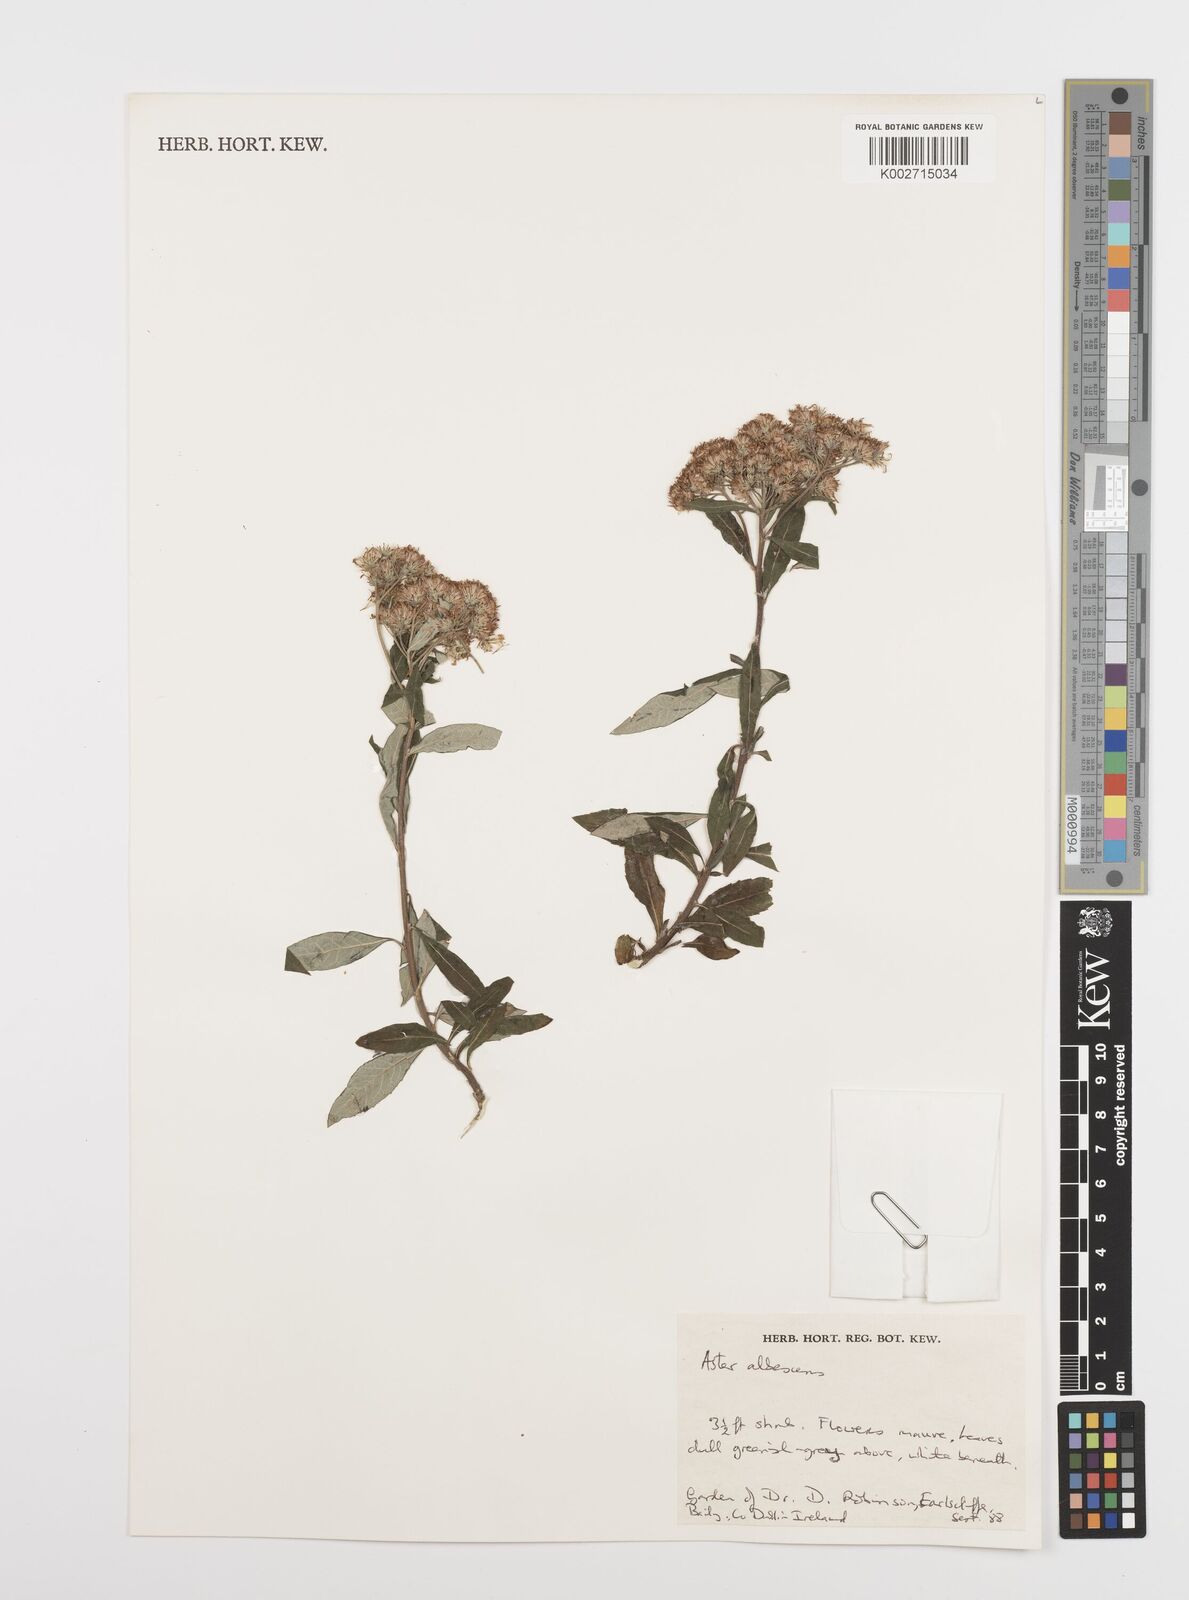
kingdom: Plantae
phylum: Tracheophyta
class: Magnoliopsida
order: Asterales
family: Asteraceae
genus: Sinosidus
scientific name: Sinosidus albescens
